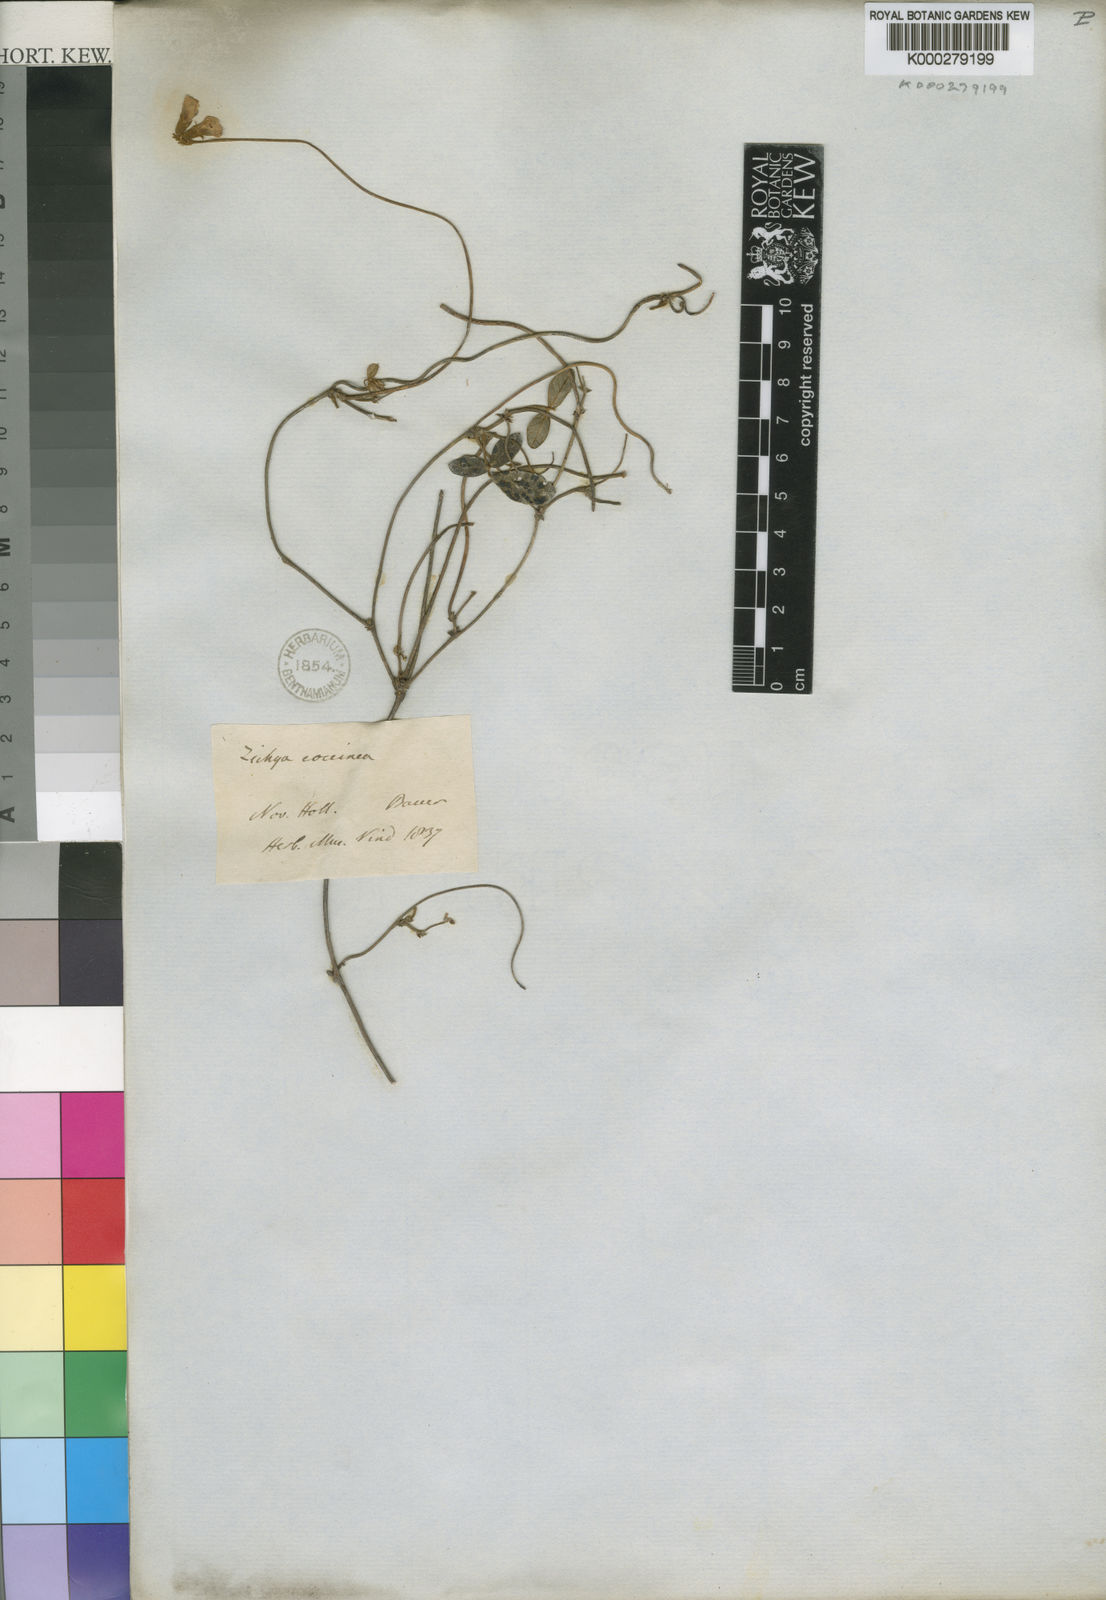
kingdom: Plantae
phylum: Tracheophyta
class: Magnoliopsida
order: Fabales
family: Fabaceae
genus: Kennedia
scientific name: Kennedia coccinea
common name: Coralvine
